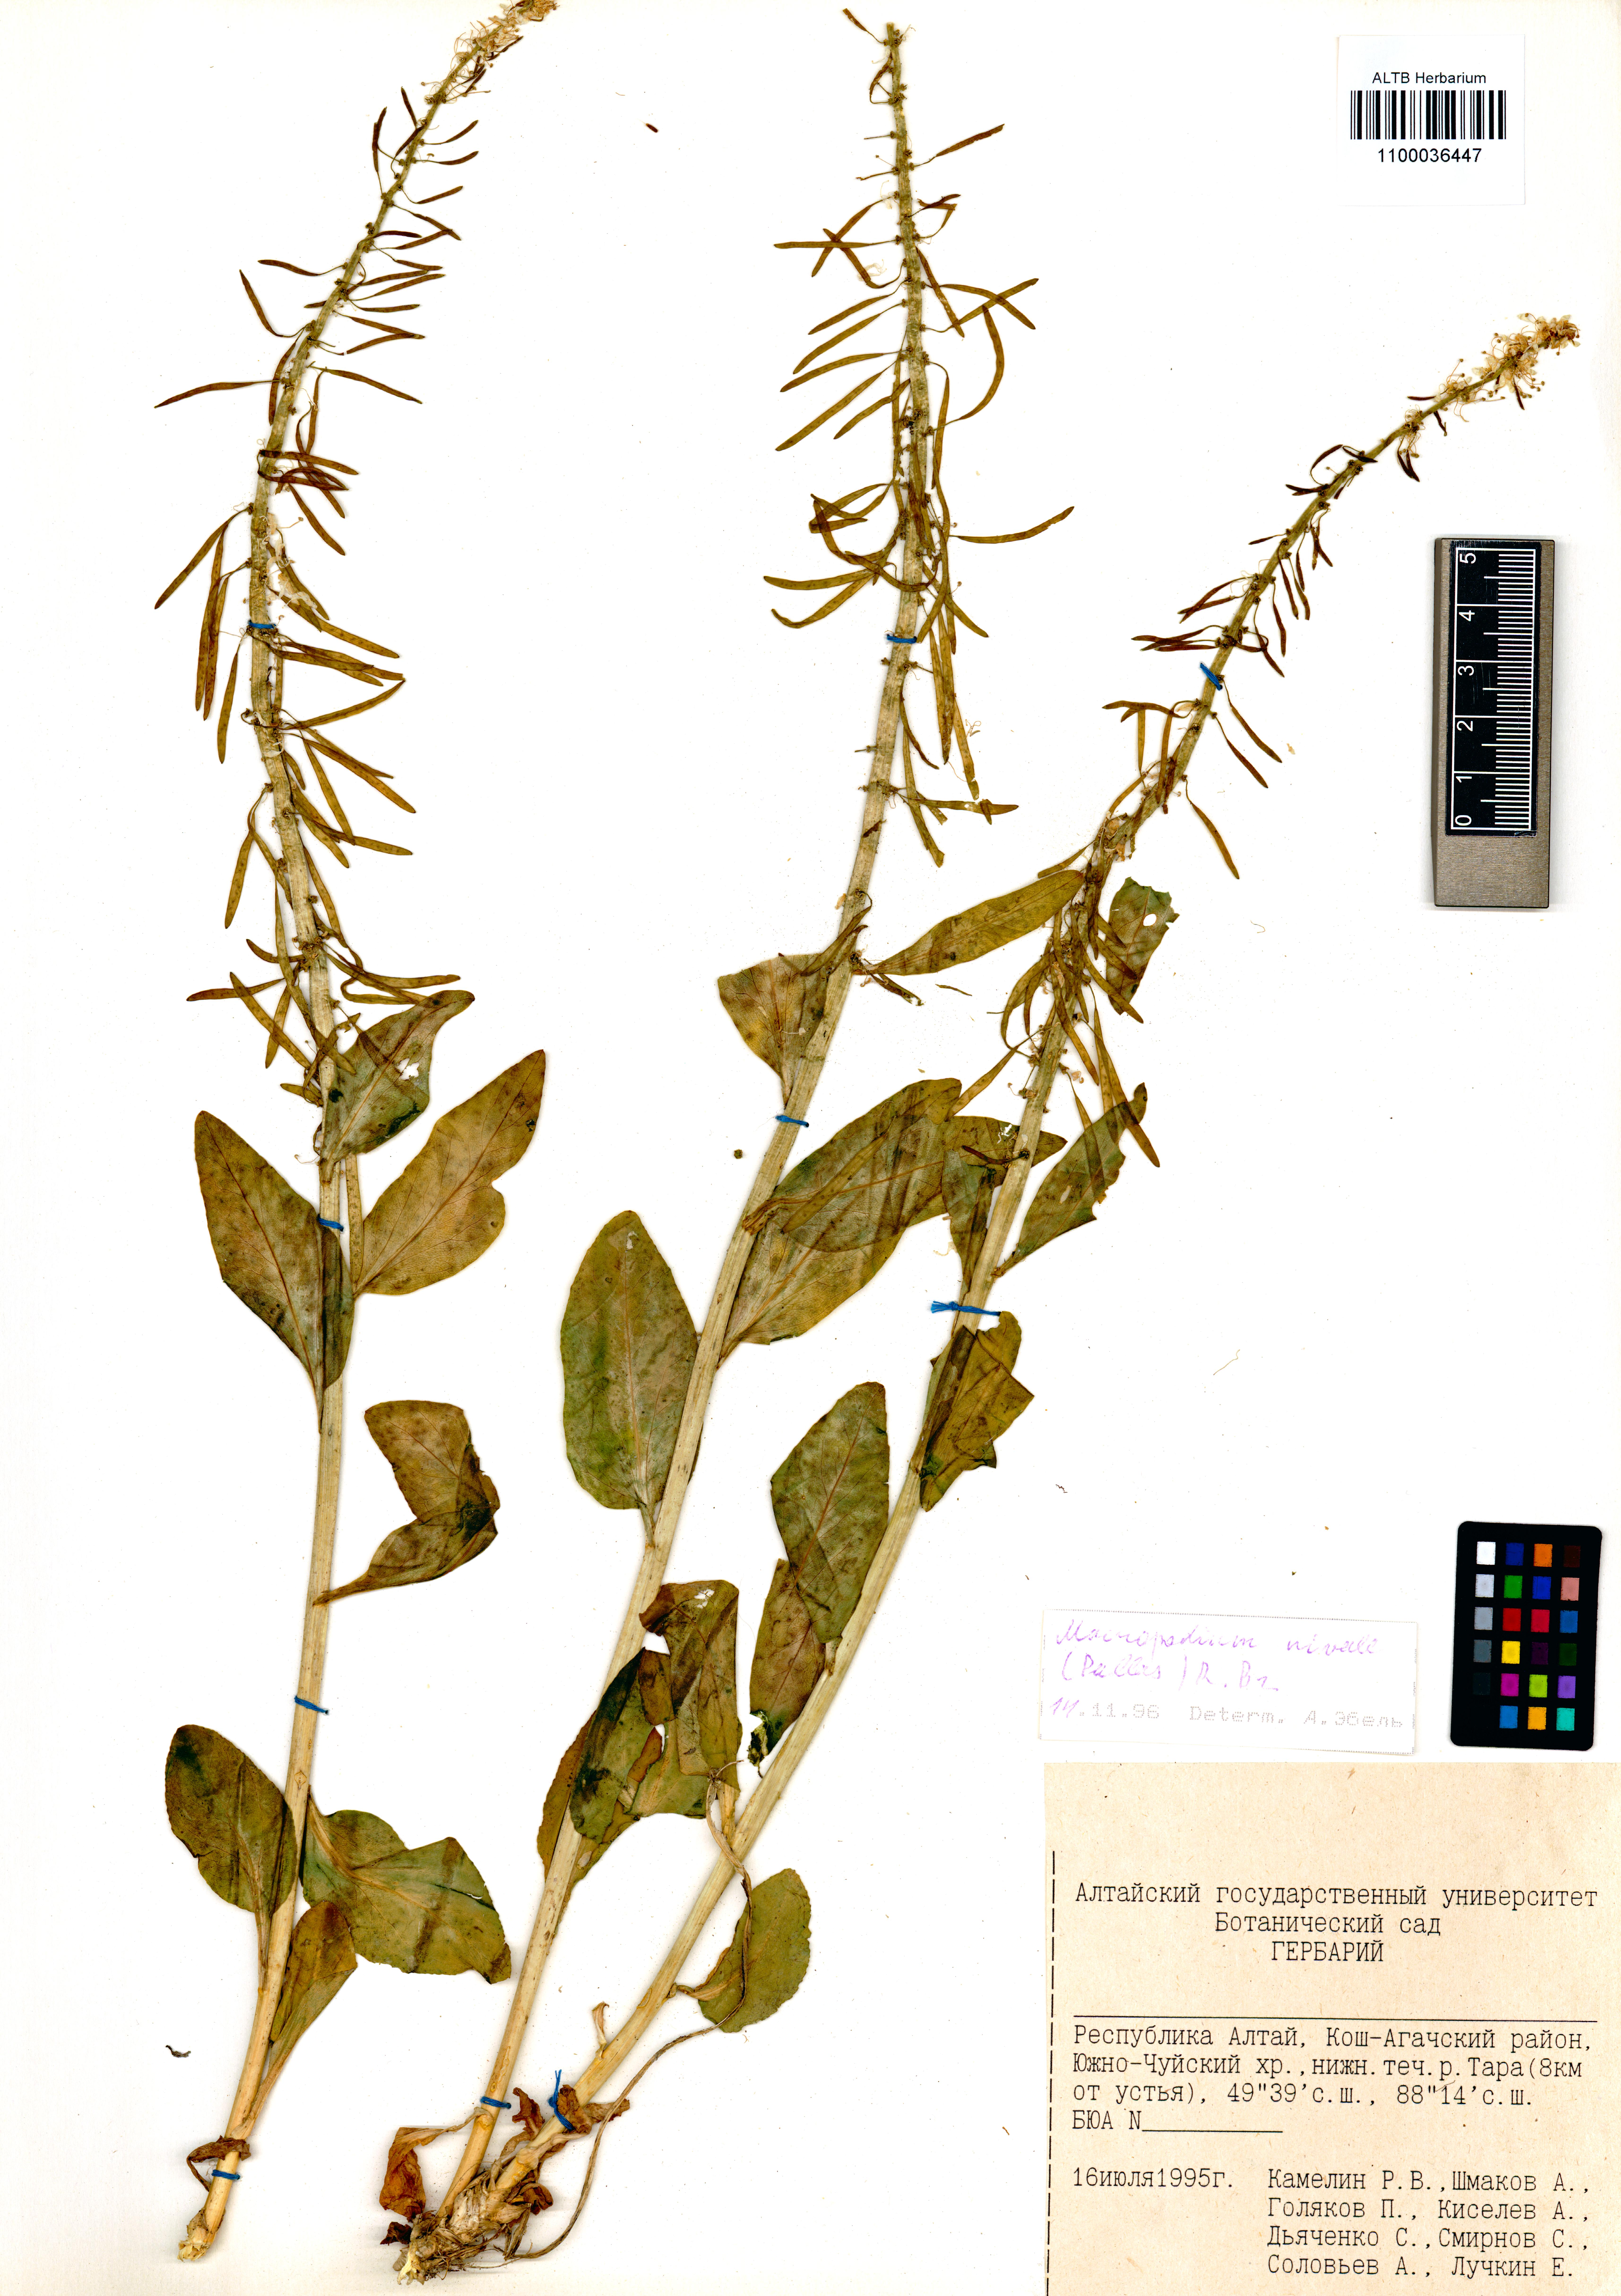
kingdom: Plantae
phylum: Tracheophyta
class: Magnoliopsida
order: Brassicales
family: Brassicaceae
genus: Macropodium
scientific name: Macropodium nivale
